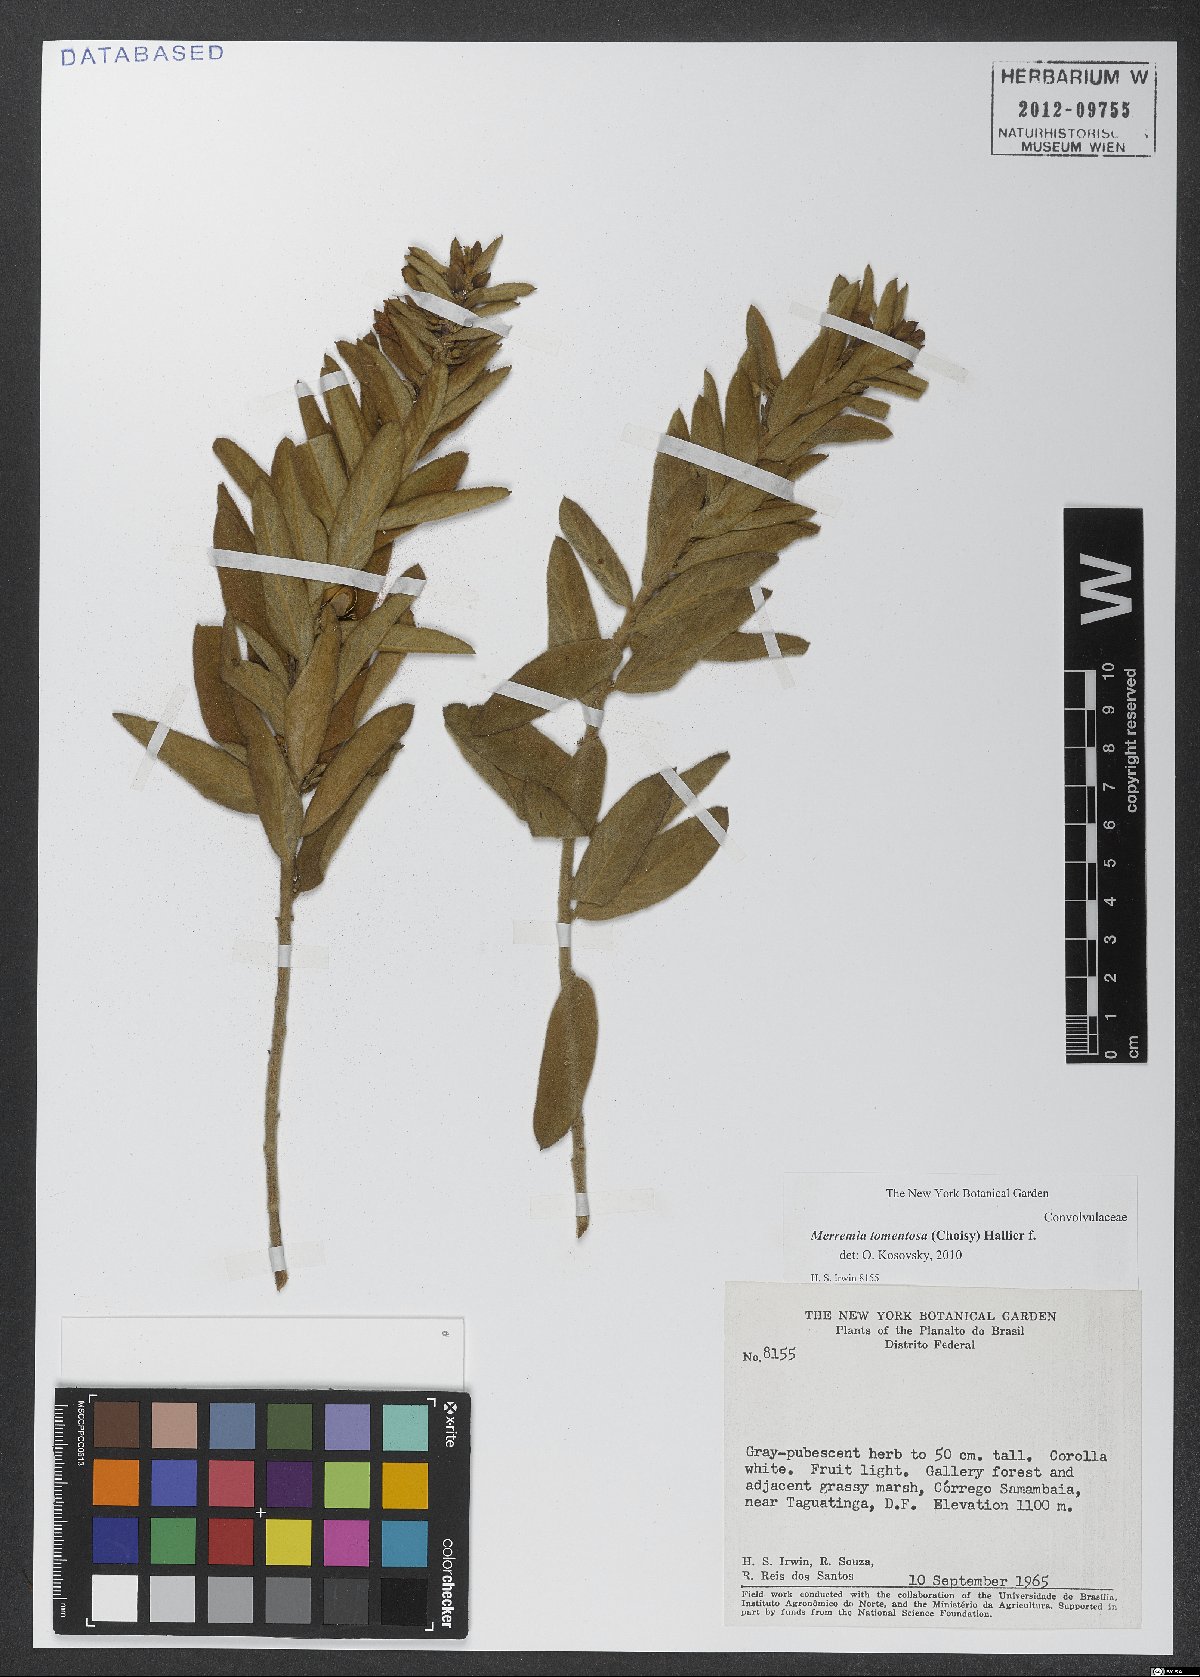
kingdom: Plantae
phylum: Tracheophyta
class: Magnoliopsida
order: Solanales
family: Convolvulaceae
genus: Distimake
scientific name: Distimake tomentosus
